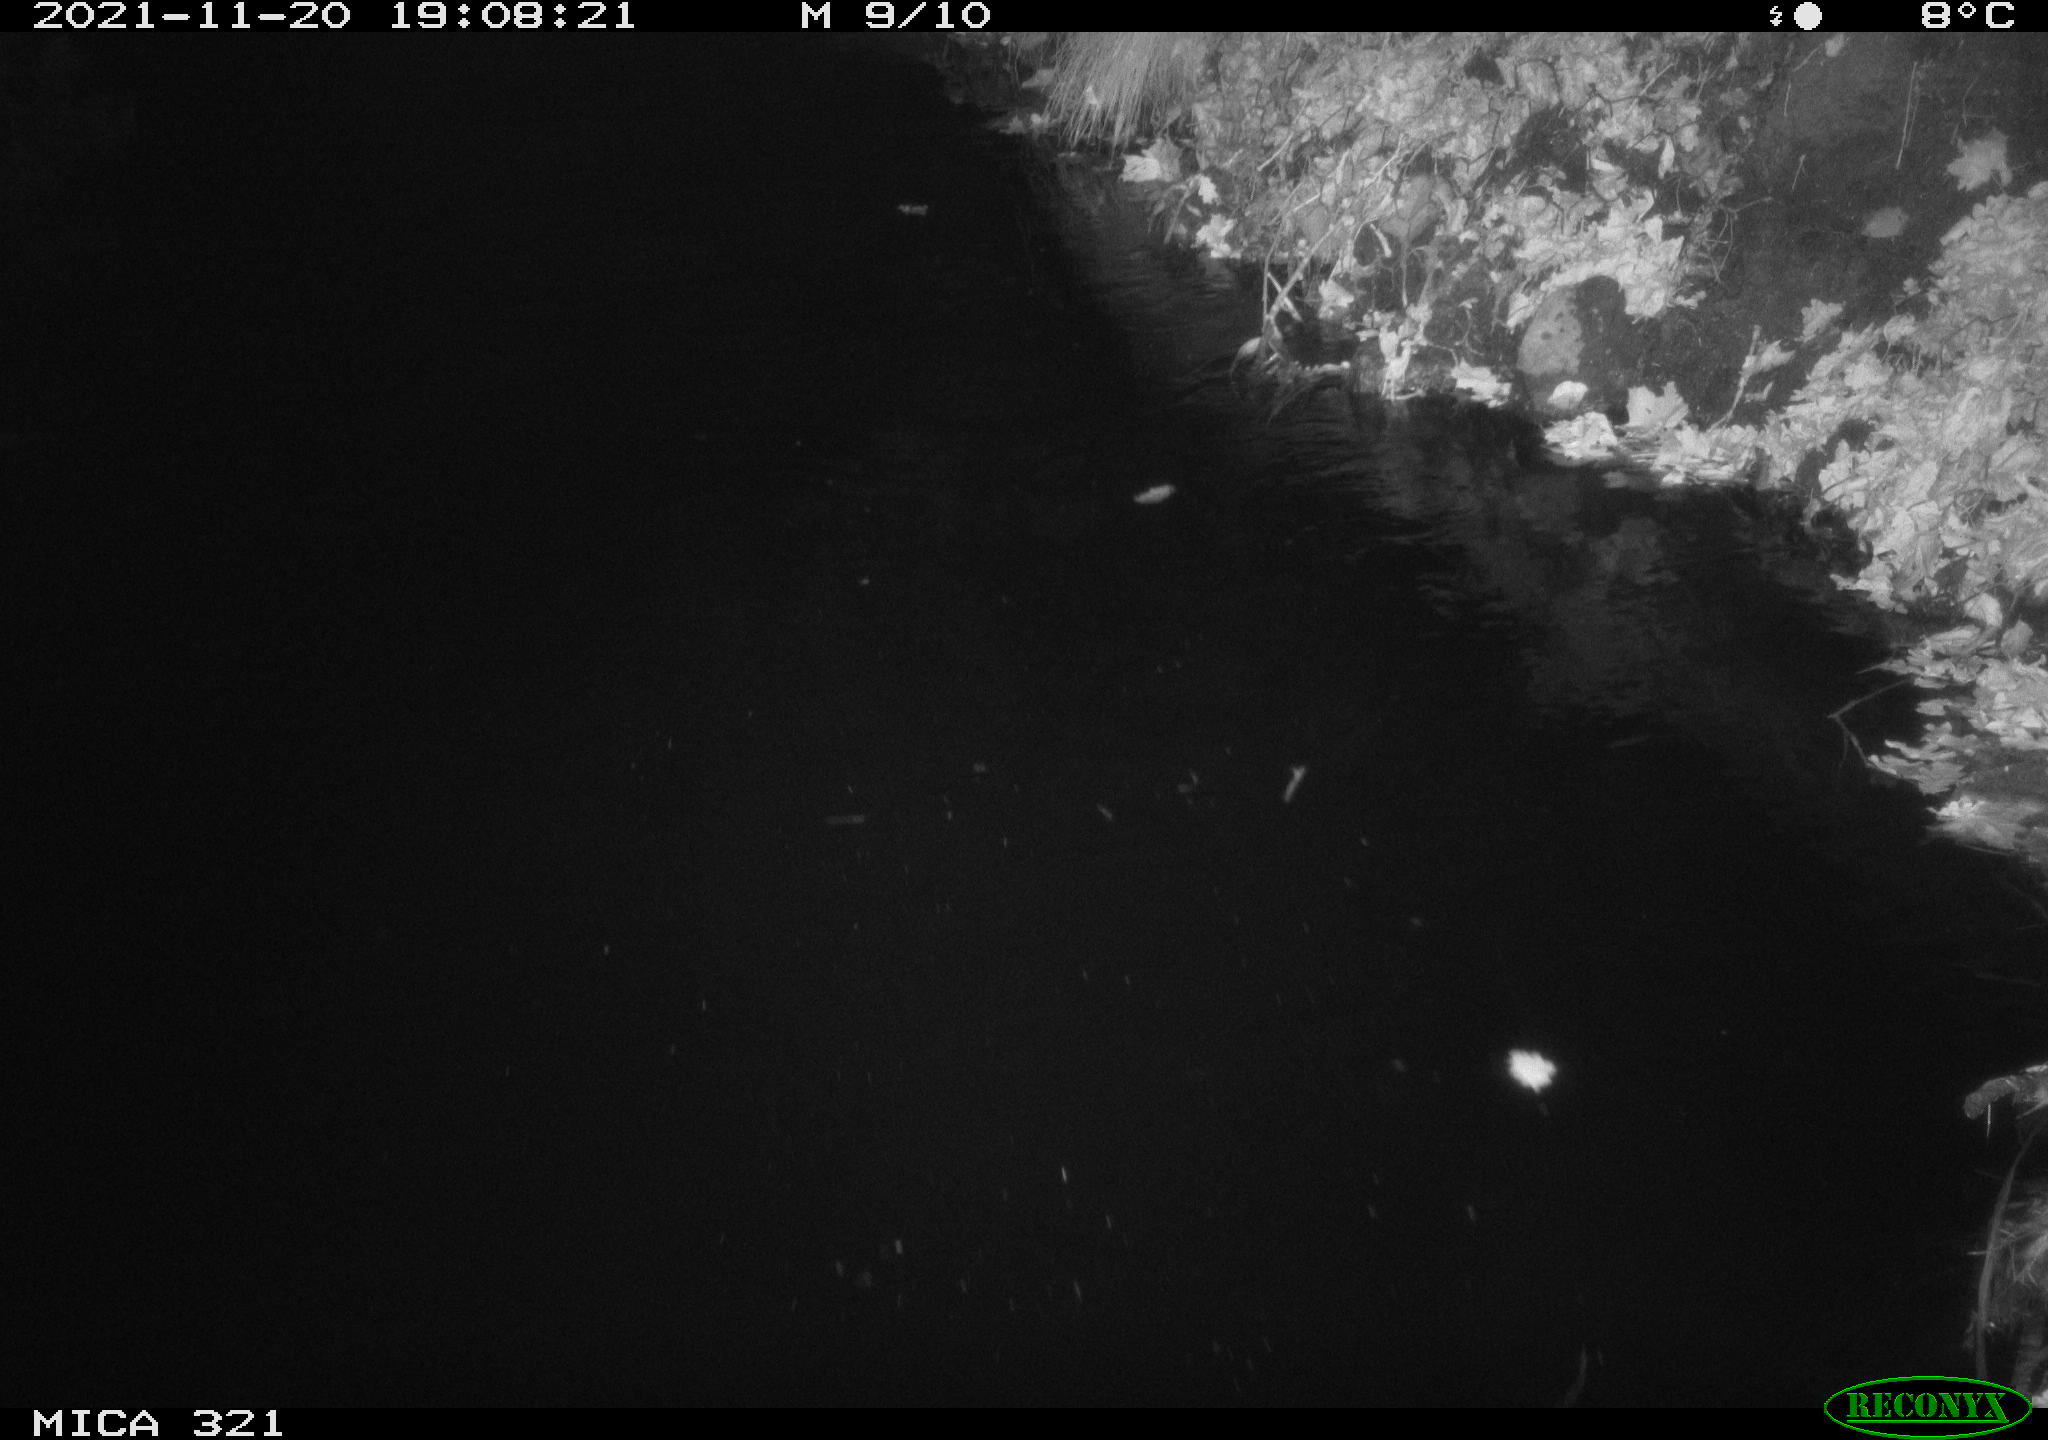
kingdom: Animalia
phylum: Chordata
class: Aves
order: Anseriformes
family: Anatidae
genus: Anas
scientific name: Anas platyrhynchos
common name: Mallard
